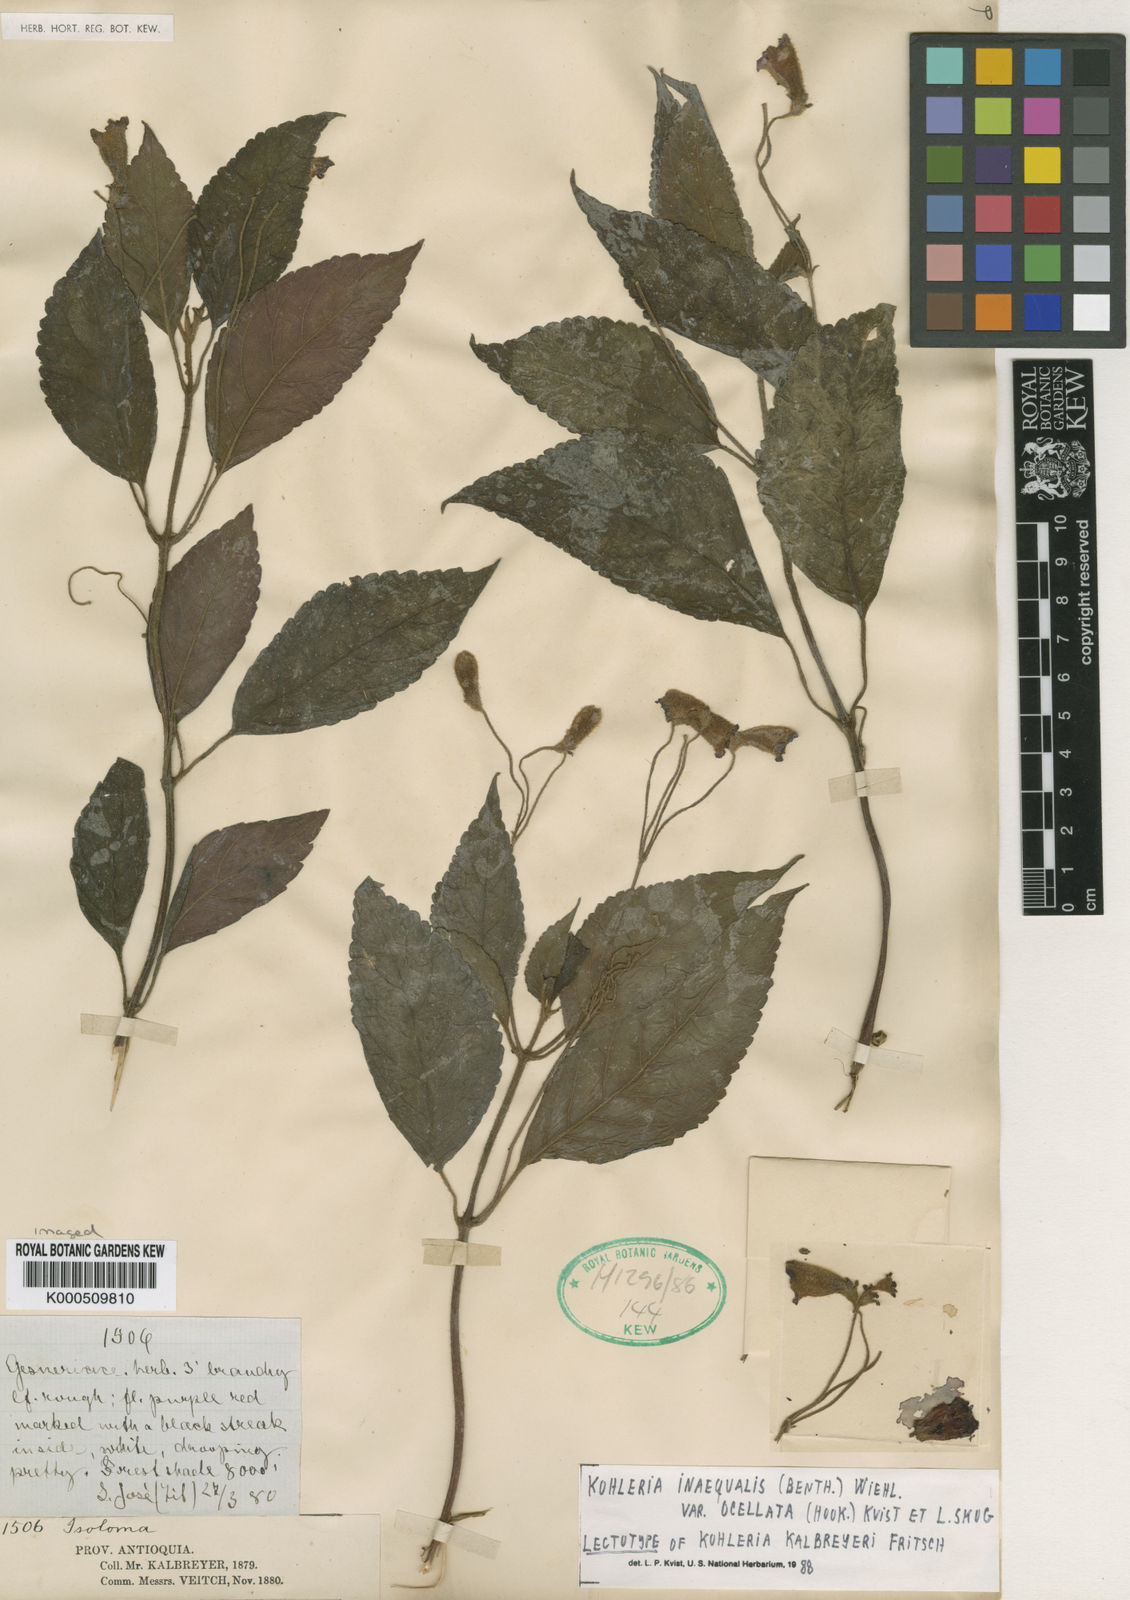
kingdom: Plantae
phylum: Tracheophyta
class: Magnoliopsida
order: Lamiales
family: Gesneriaceae
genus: Kohleria
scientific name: Kohleria inaequalis
